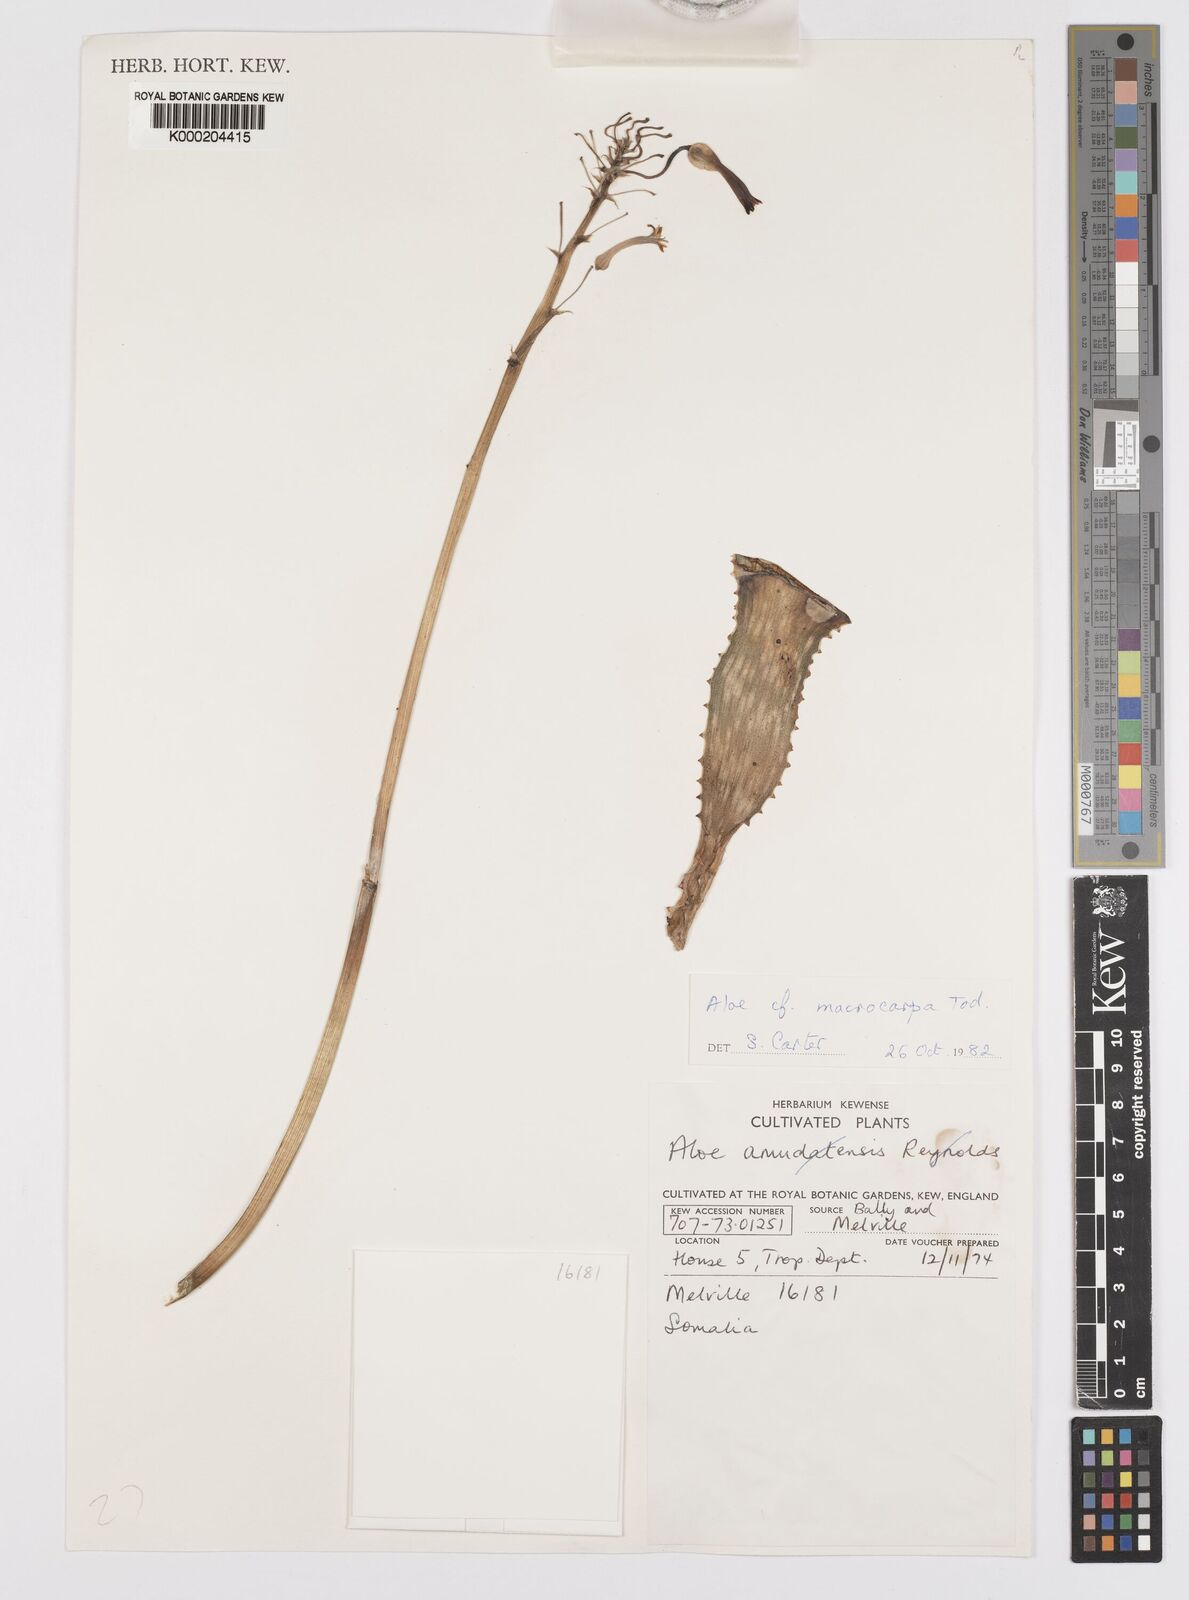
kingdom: Plantae
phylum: Tracheophyta
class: Liliopsida
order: Asparagales
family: Asphodelaceae
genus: Aloe
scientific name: Aloe macrocarpa
